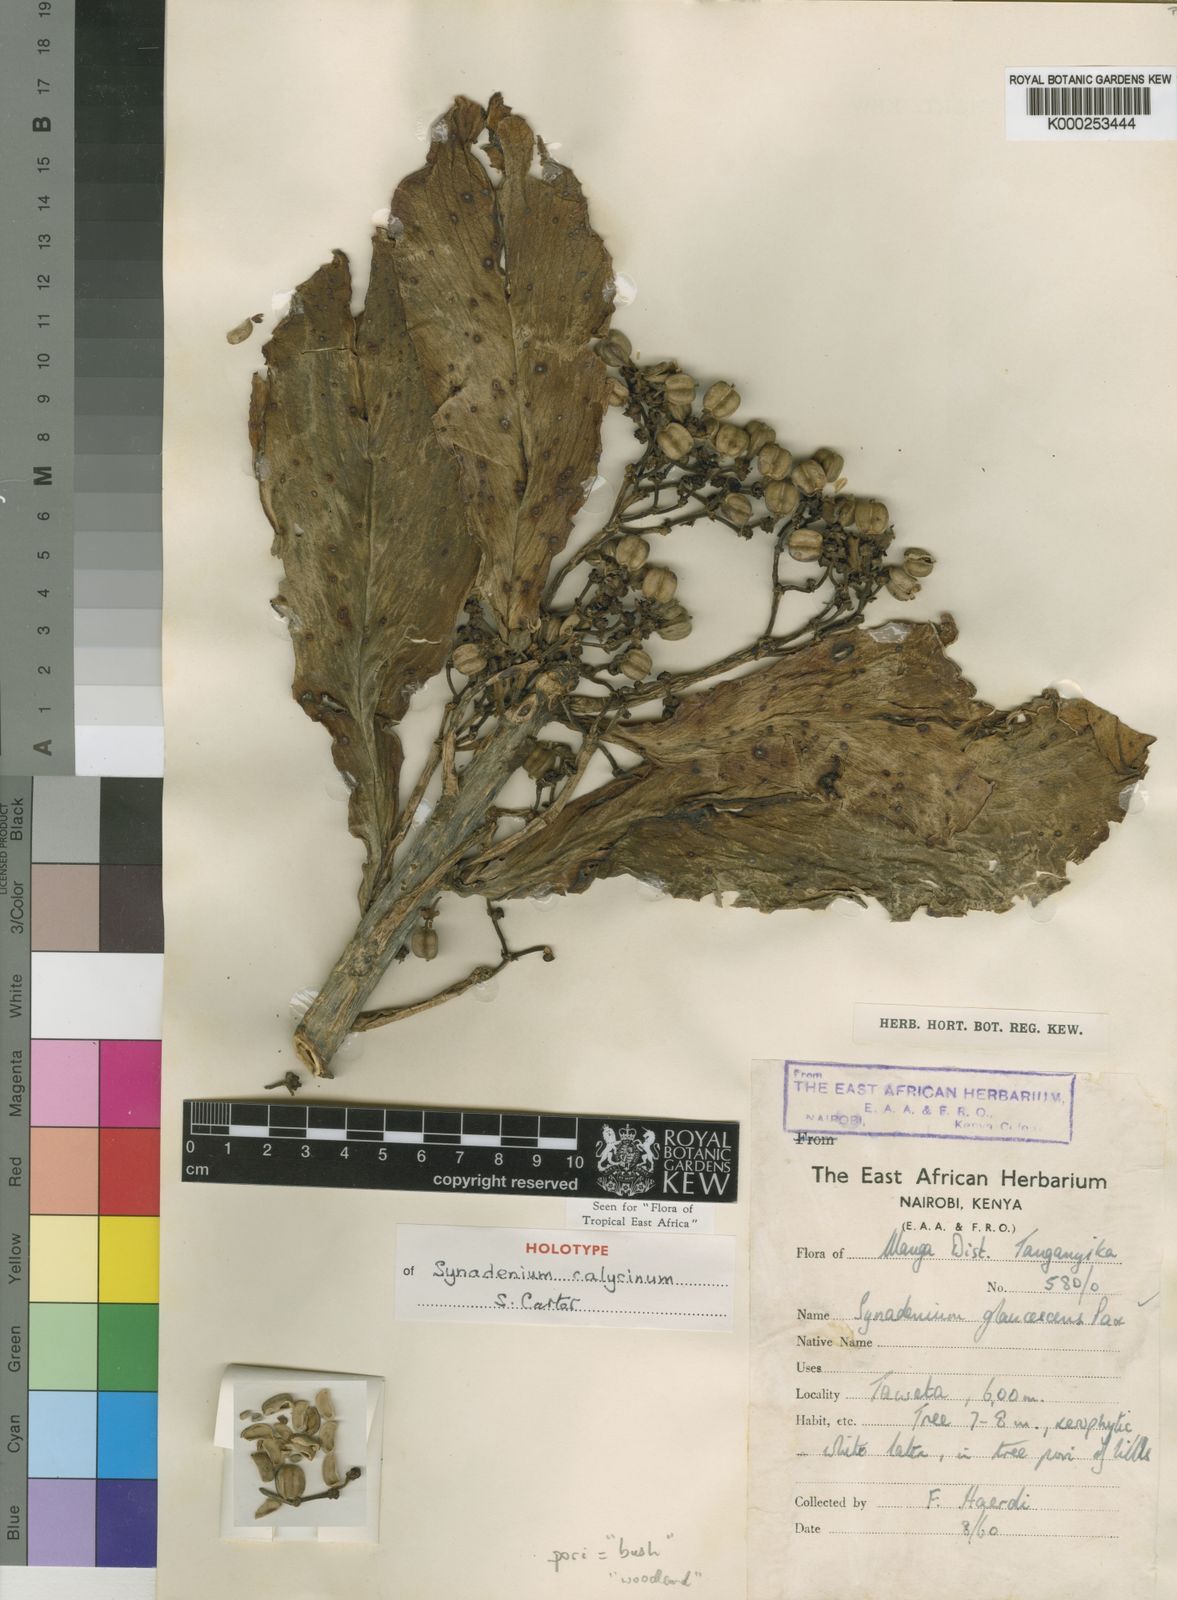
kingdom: Plantae
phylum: Tracheophyta
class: Magnoliopsida
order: Malpighiales
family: Euphorbiaceae
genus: Euphorbia
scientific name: Euphorbia syncalycina
